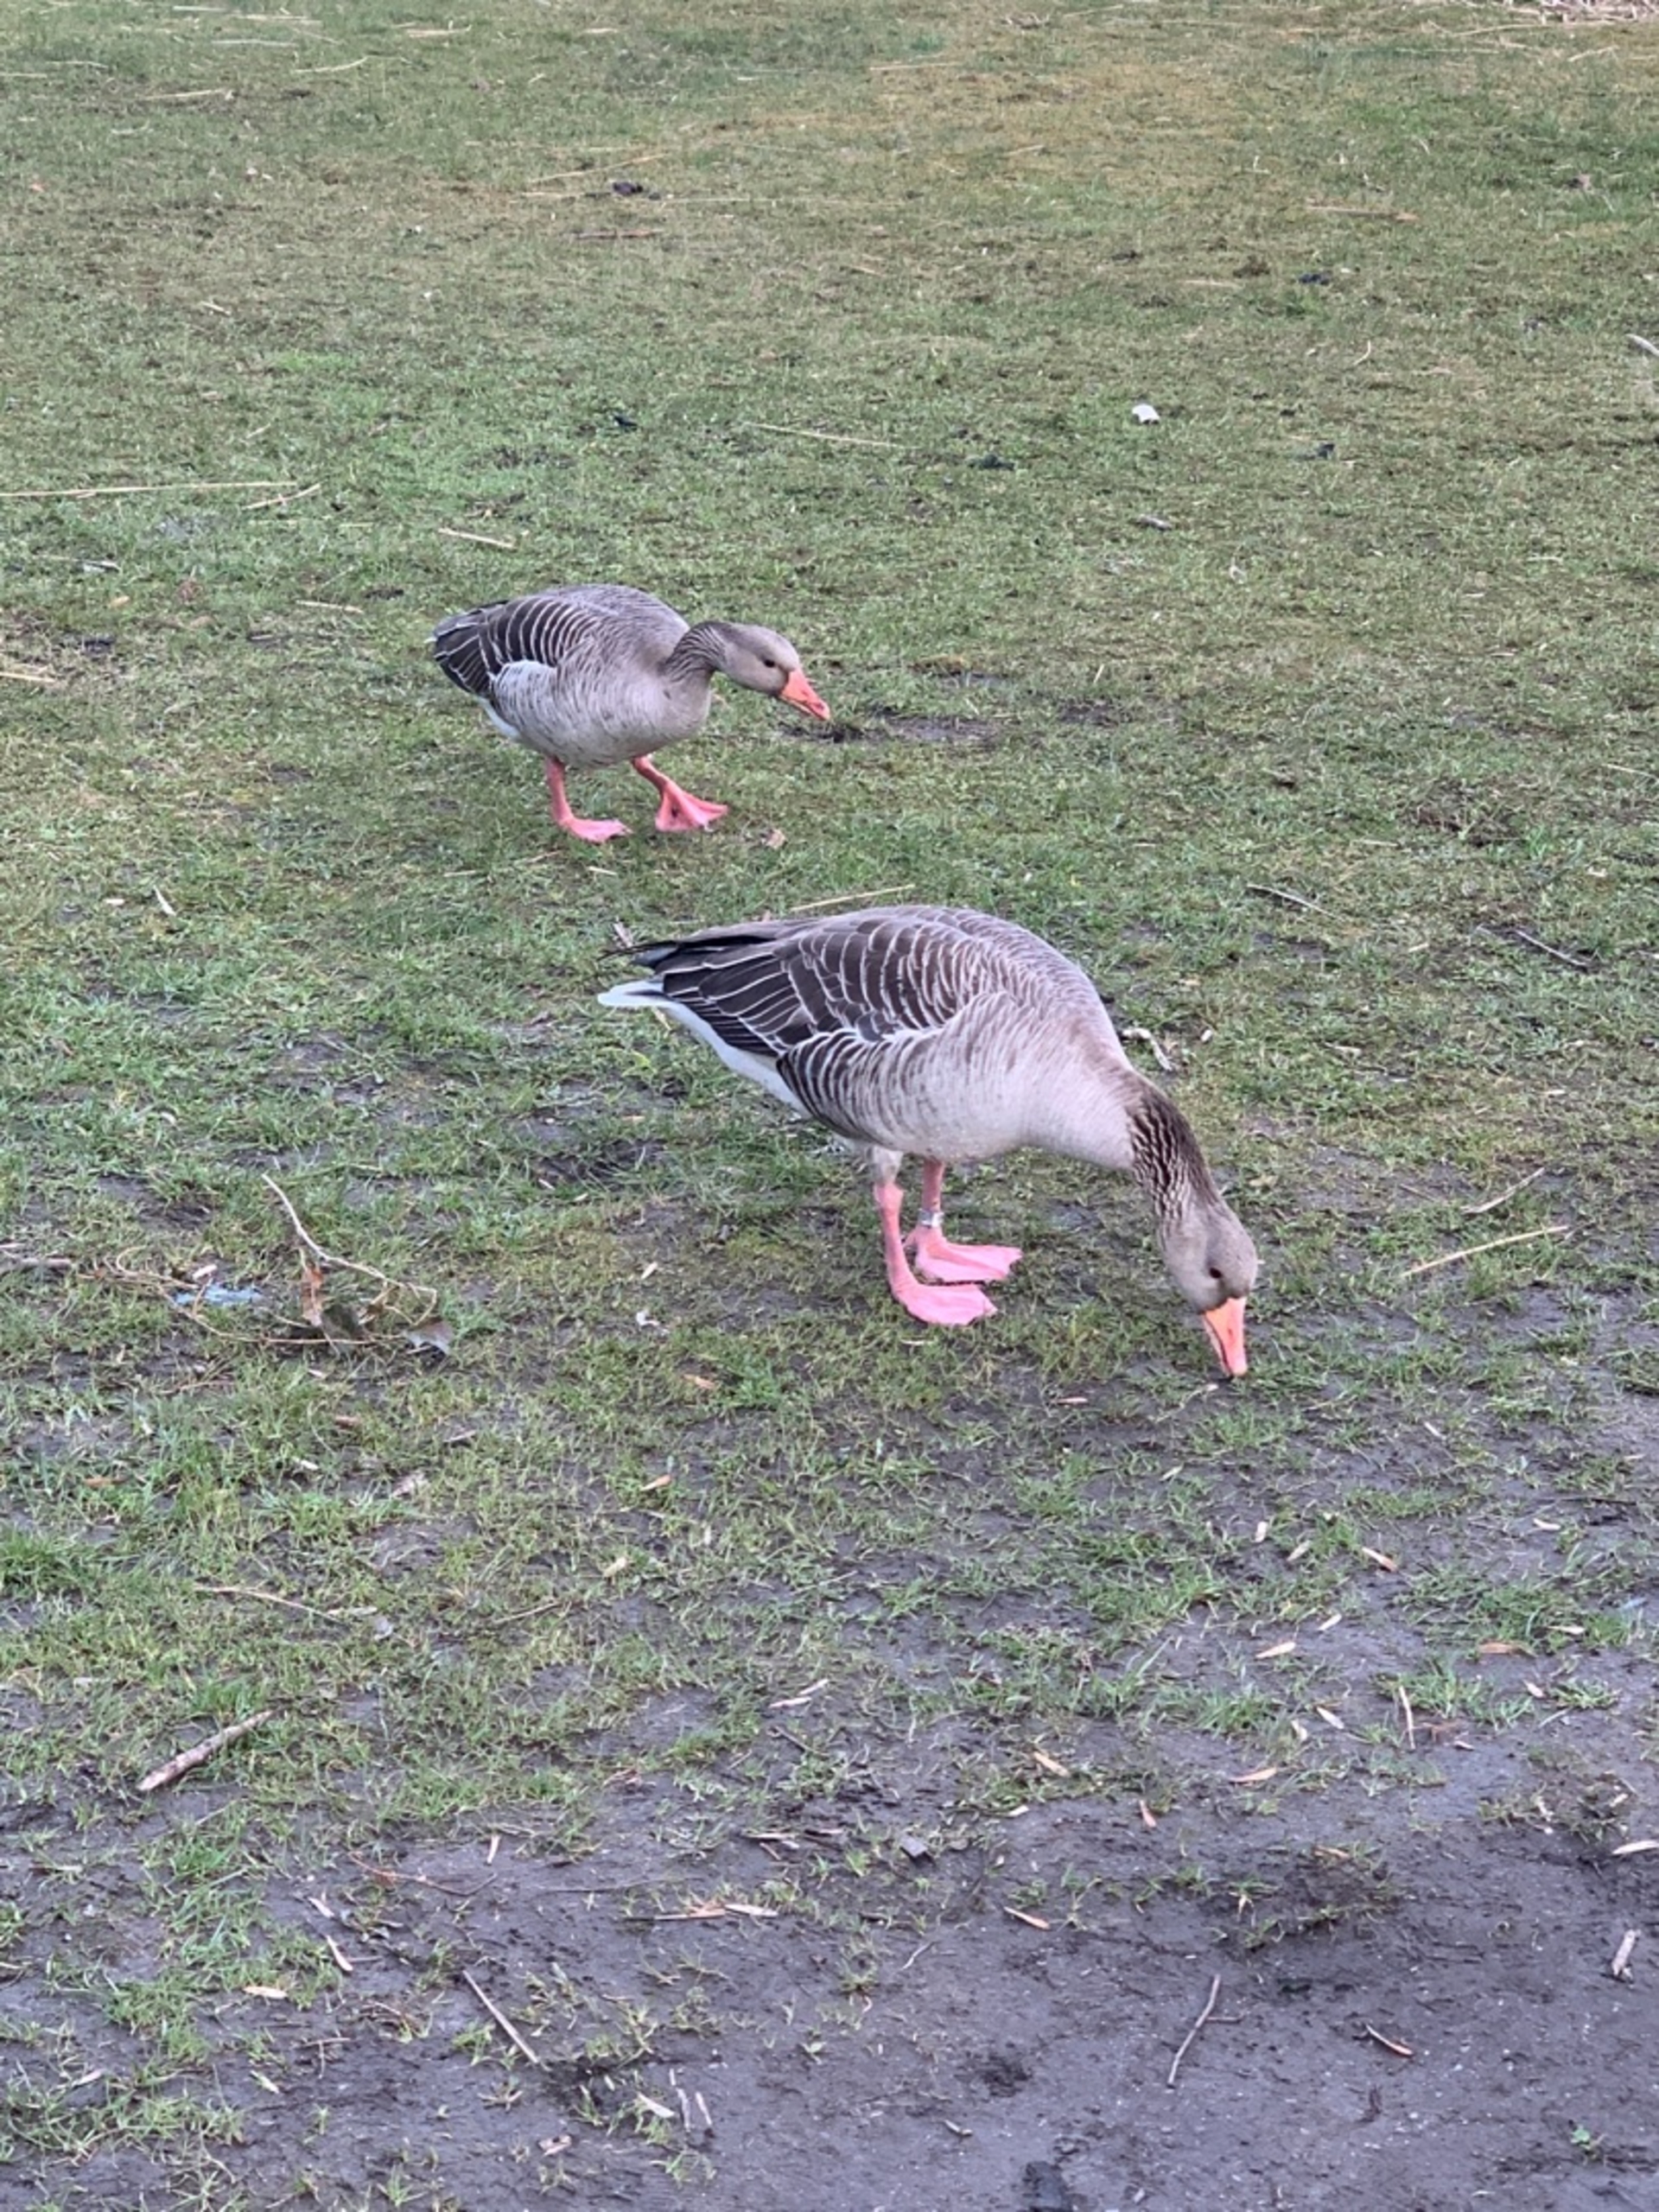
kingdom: Animalia
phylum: Chordata
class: Aves
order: Anseriformes
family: Anatidae
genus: Anser
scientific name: Anser anser
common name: Grågås
